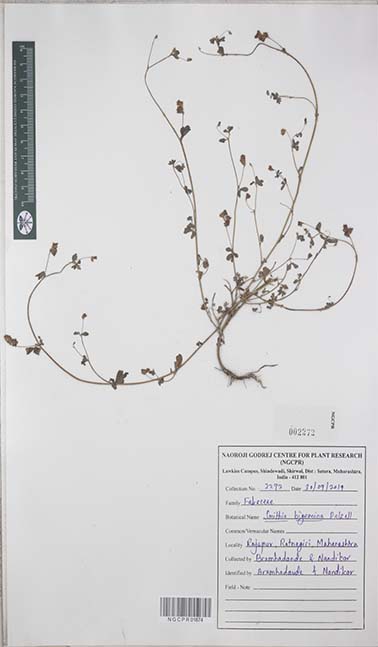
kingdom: Plantae
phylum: Tracheophyta
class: Magnoliopsida
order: Fabales
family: Fabaceae
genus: Smithia
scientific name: Smithia bigemina
